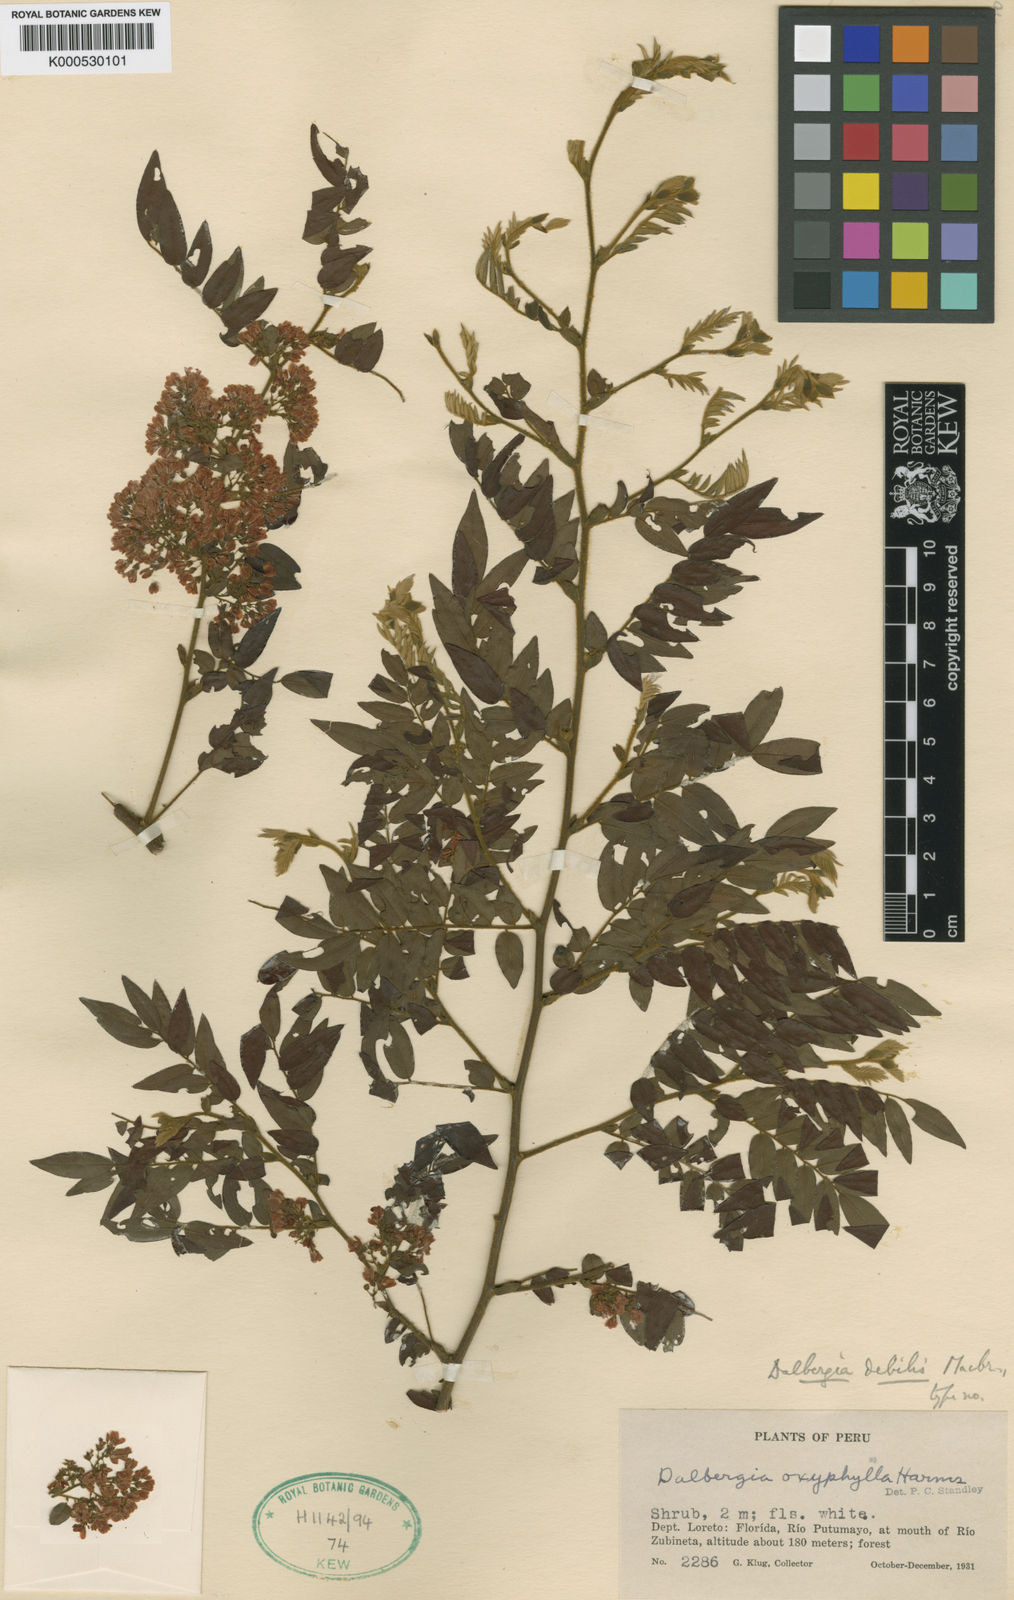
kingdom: Plantae
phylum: Tracheophyta
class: Magnoliopsida
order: Fabales
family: Fabaceae
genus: Dalbergia
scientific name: Dalbergia debilis
